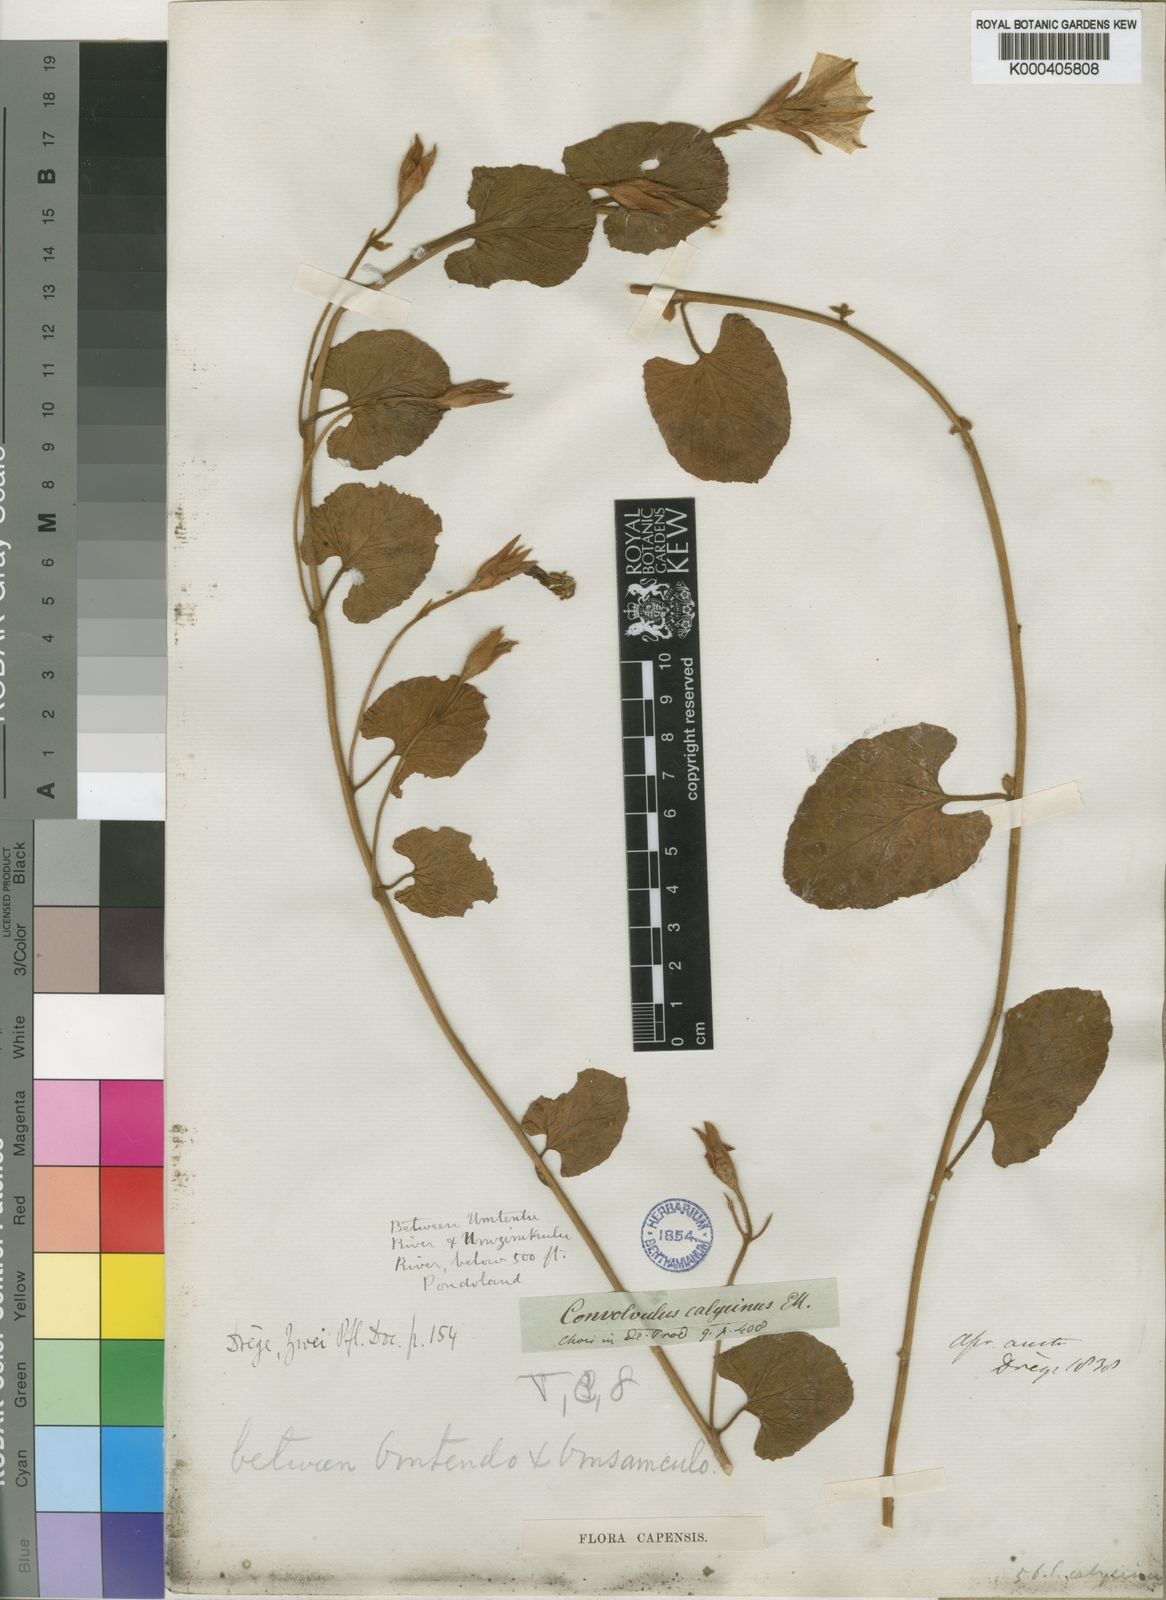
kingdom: Plantae
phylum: Tracheophyta
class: Magnoliopsida
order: Solanales
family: Convolvulaceae
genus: Convolvulus
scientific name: Convolvulus natalensis
